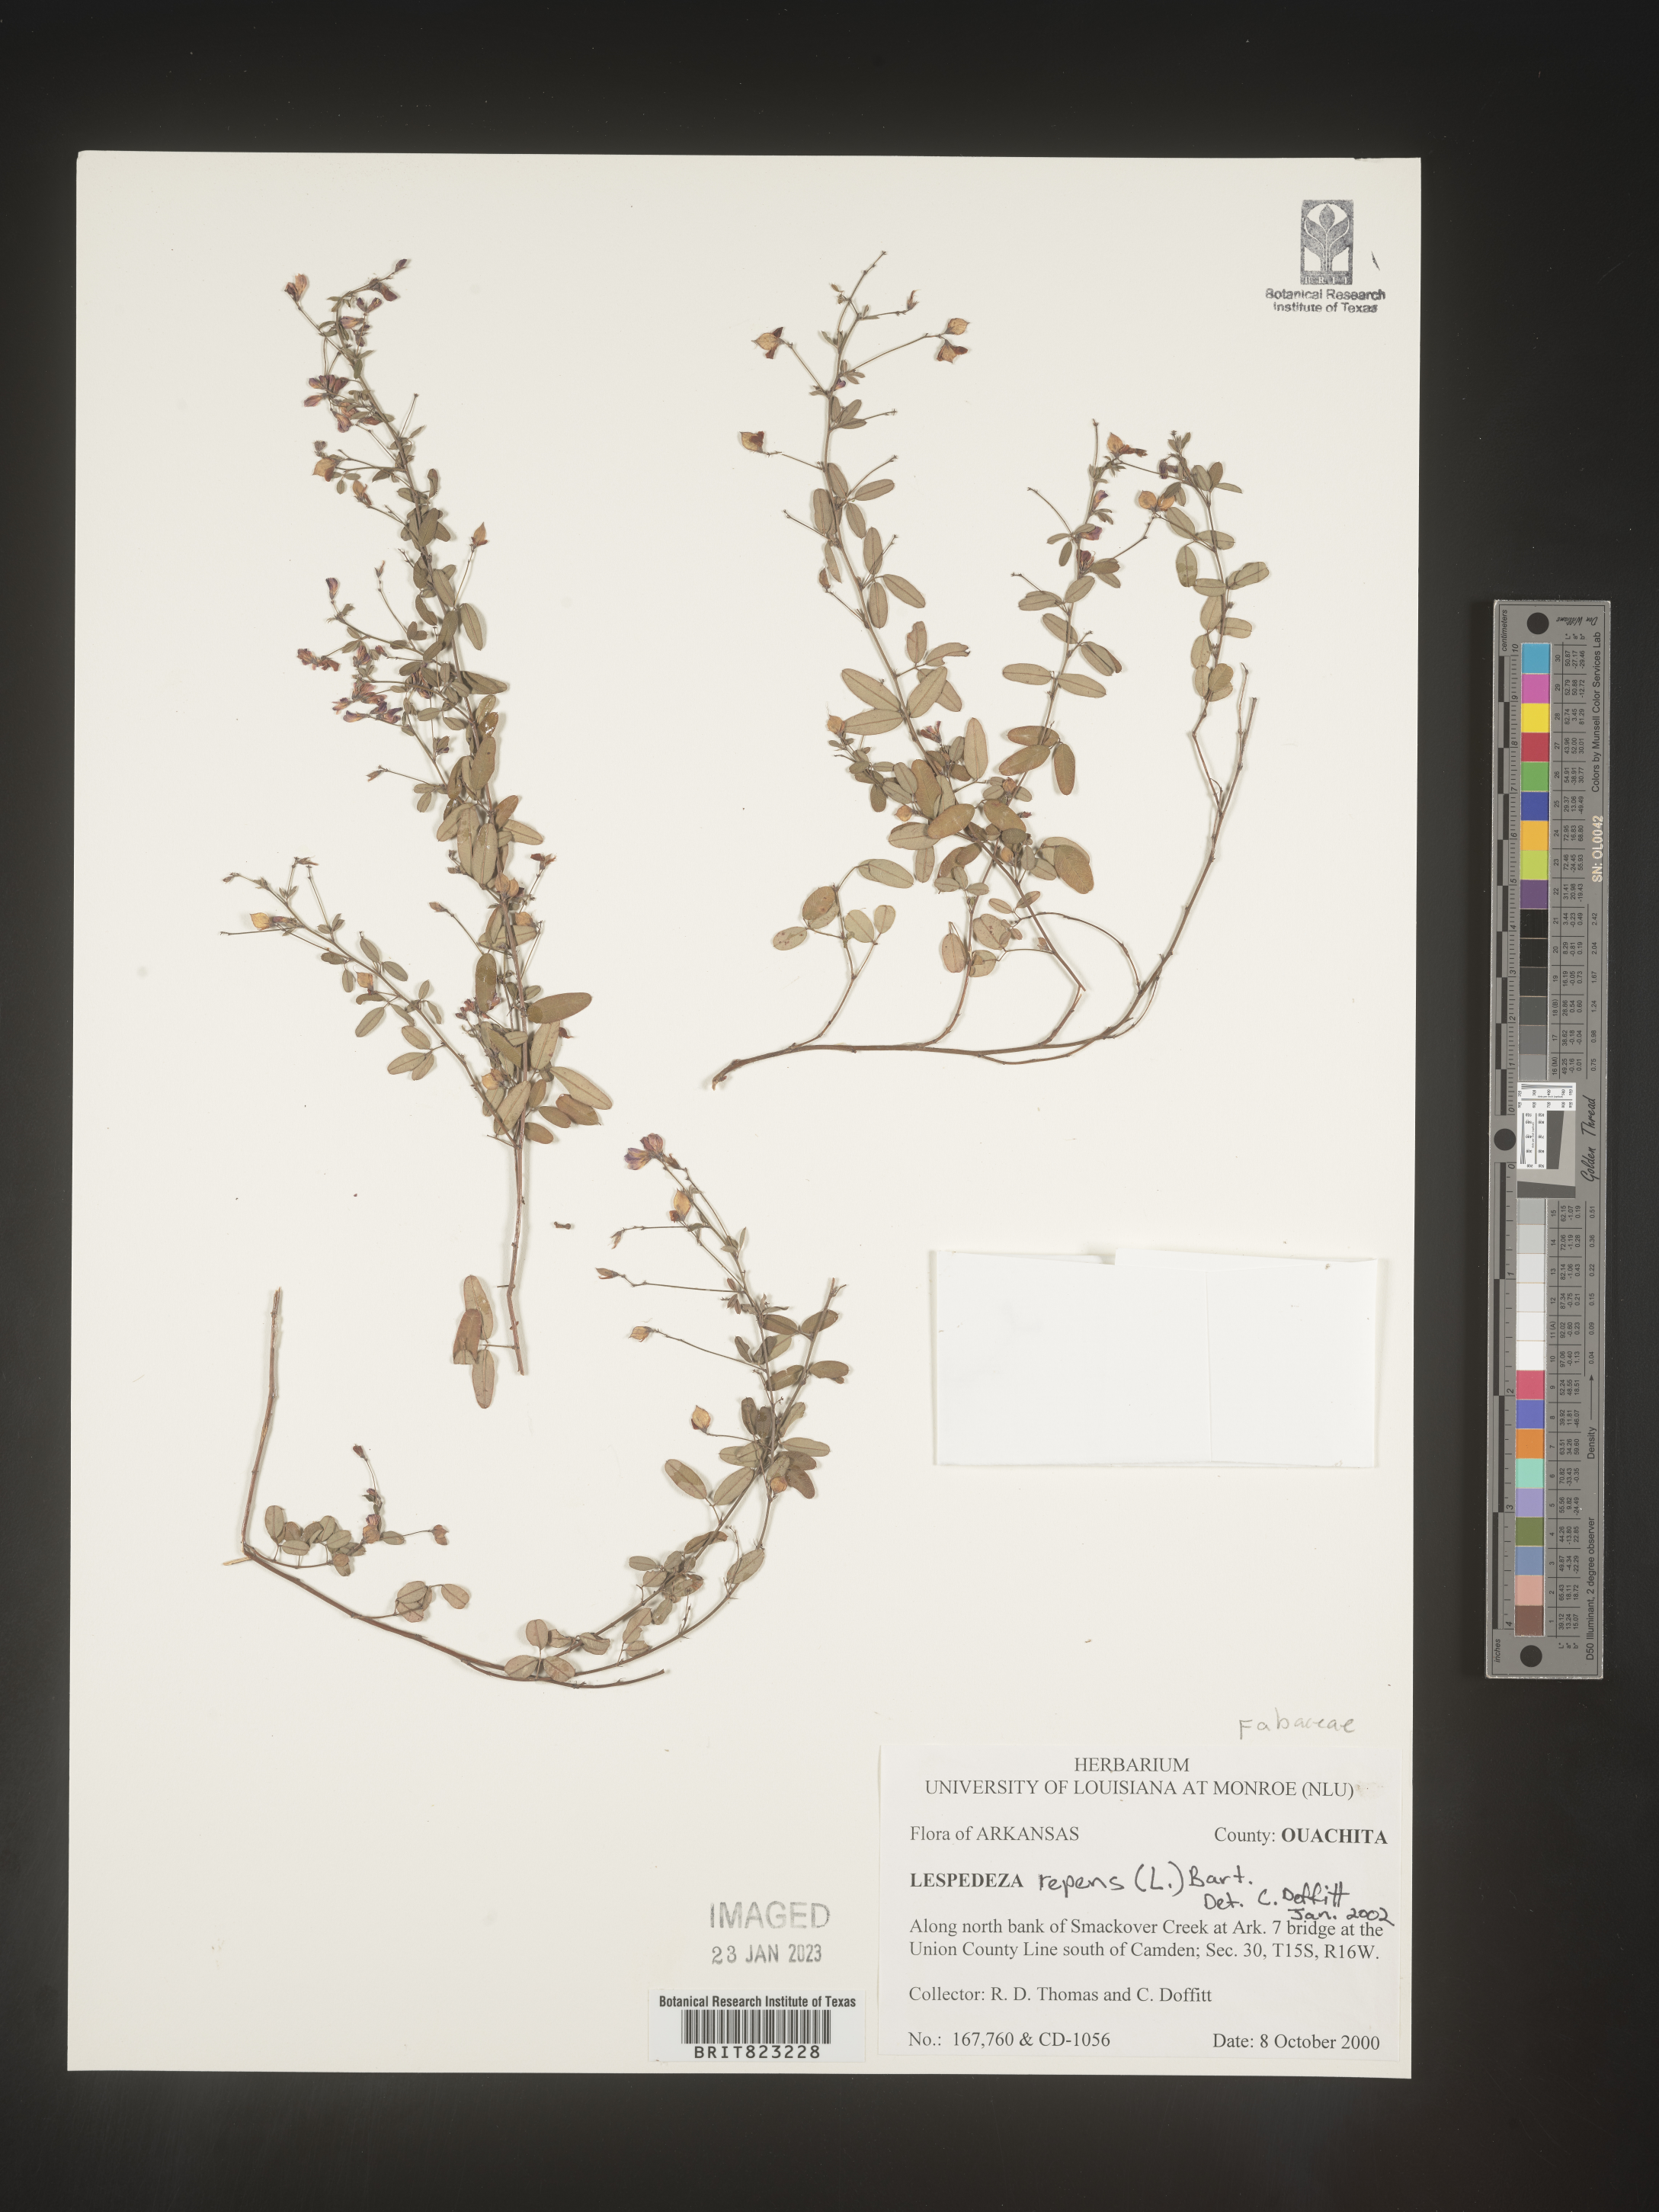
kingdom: Plantae
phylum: Tracheophyta
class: Magnoliopsida
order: Fabales
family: Fabaceae
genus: Lespedeza
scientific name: Lespedeza repens
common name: Creeping bush-clover
